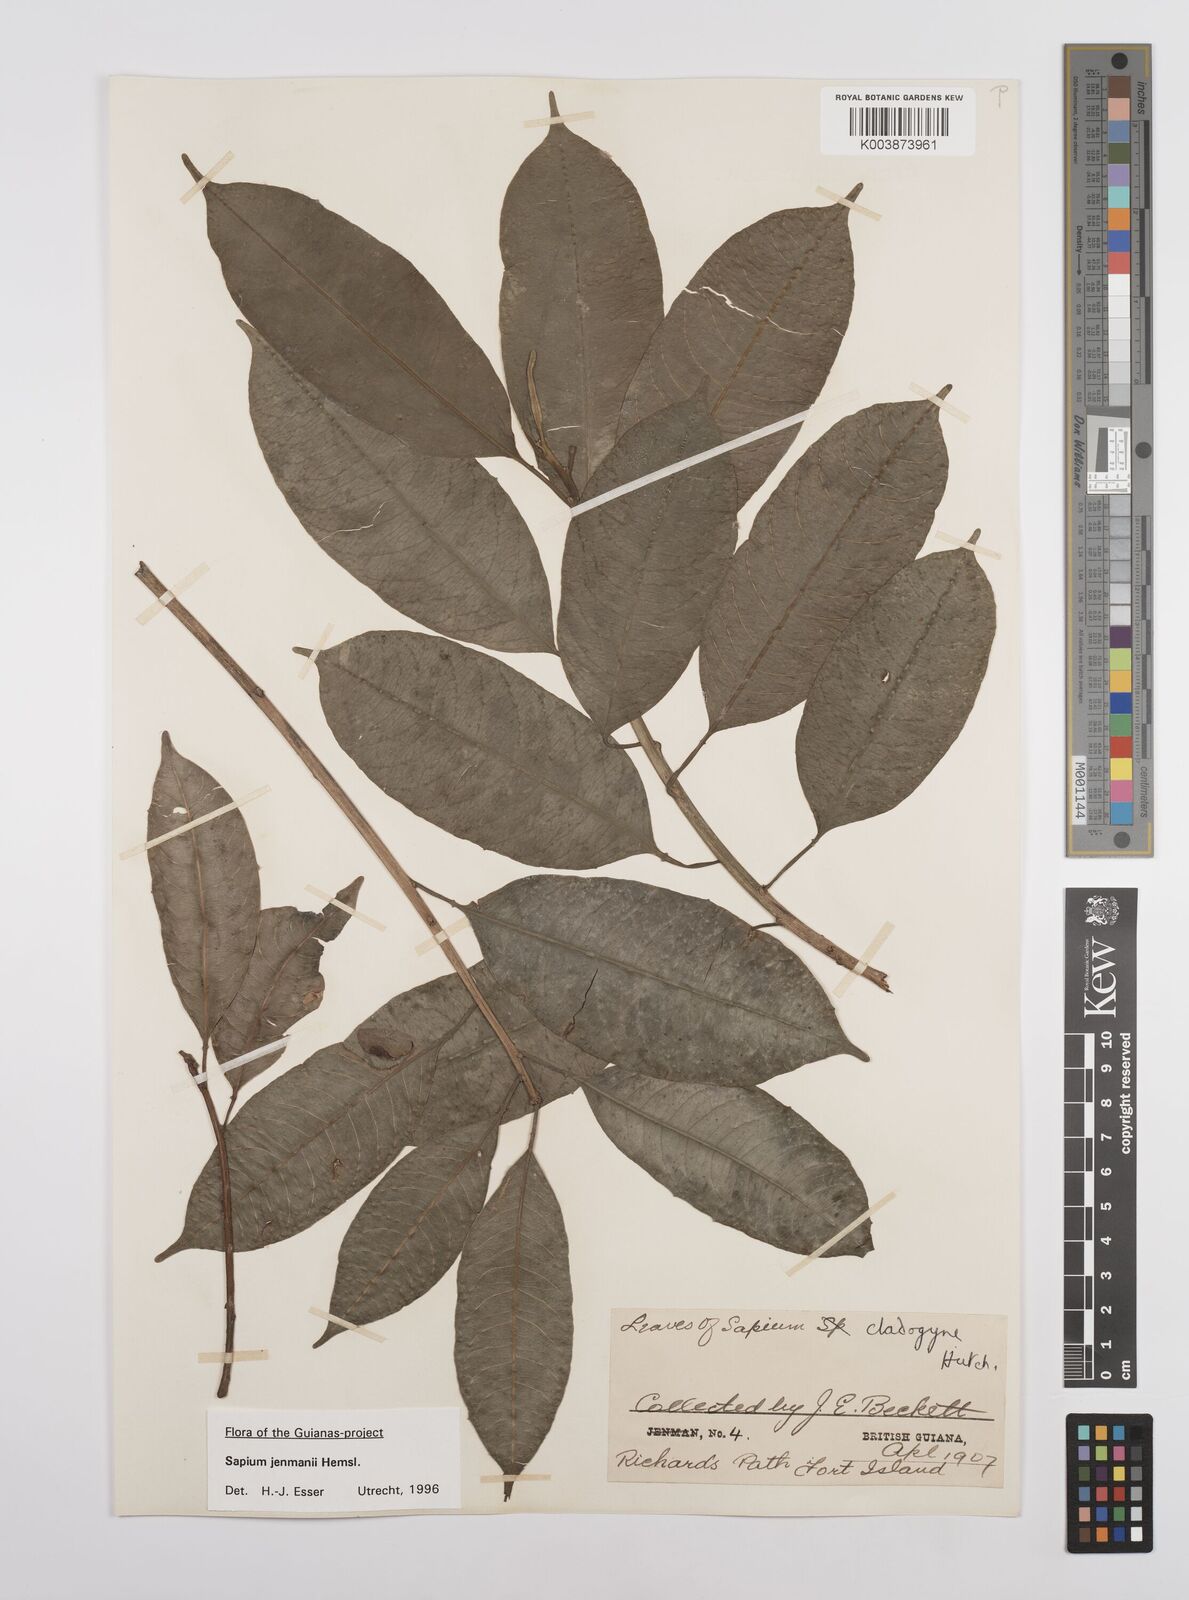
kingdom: Plantae
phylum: Tracheophyta
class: Magnoliopsida
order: Malpighiales
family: Euphorbiaceae
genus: Sapium
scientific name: Sapium jenmannii
